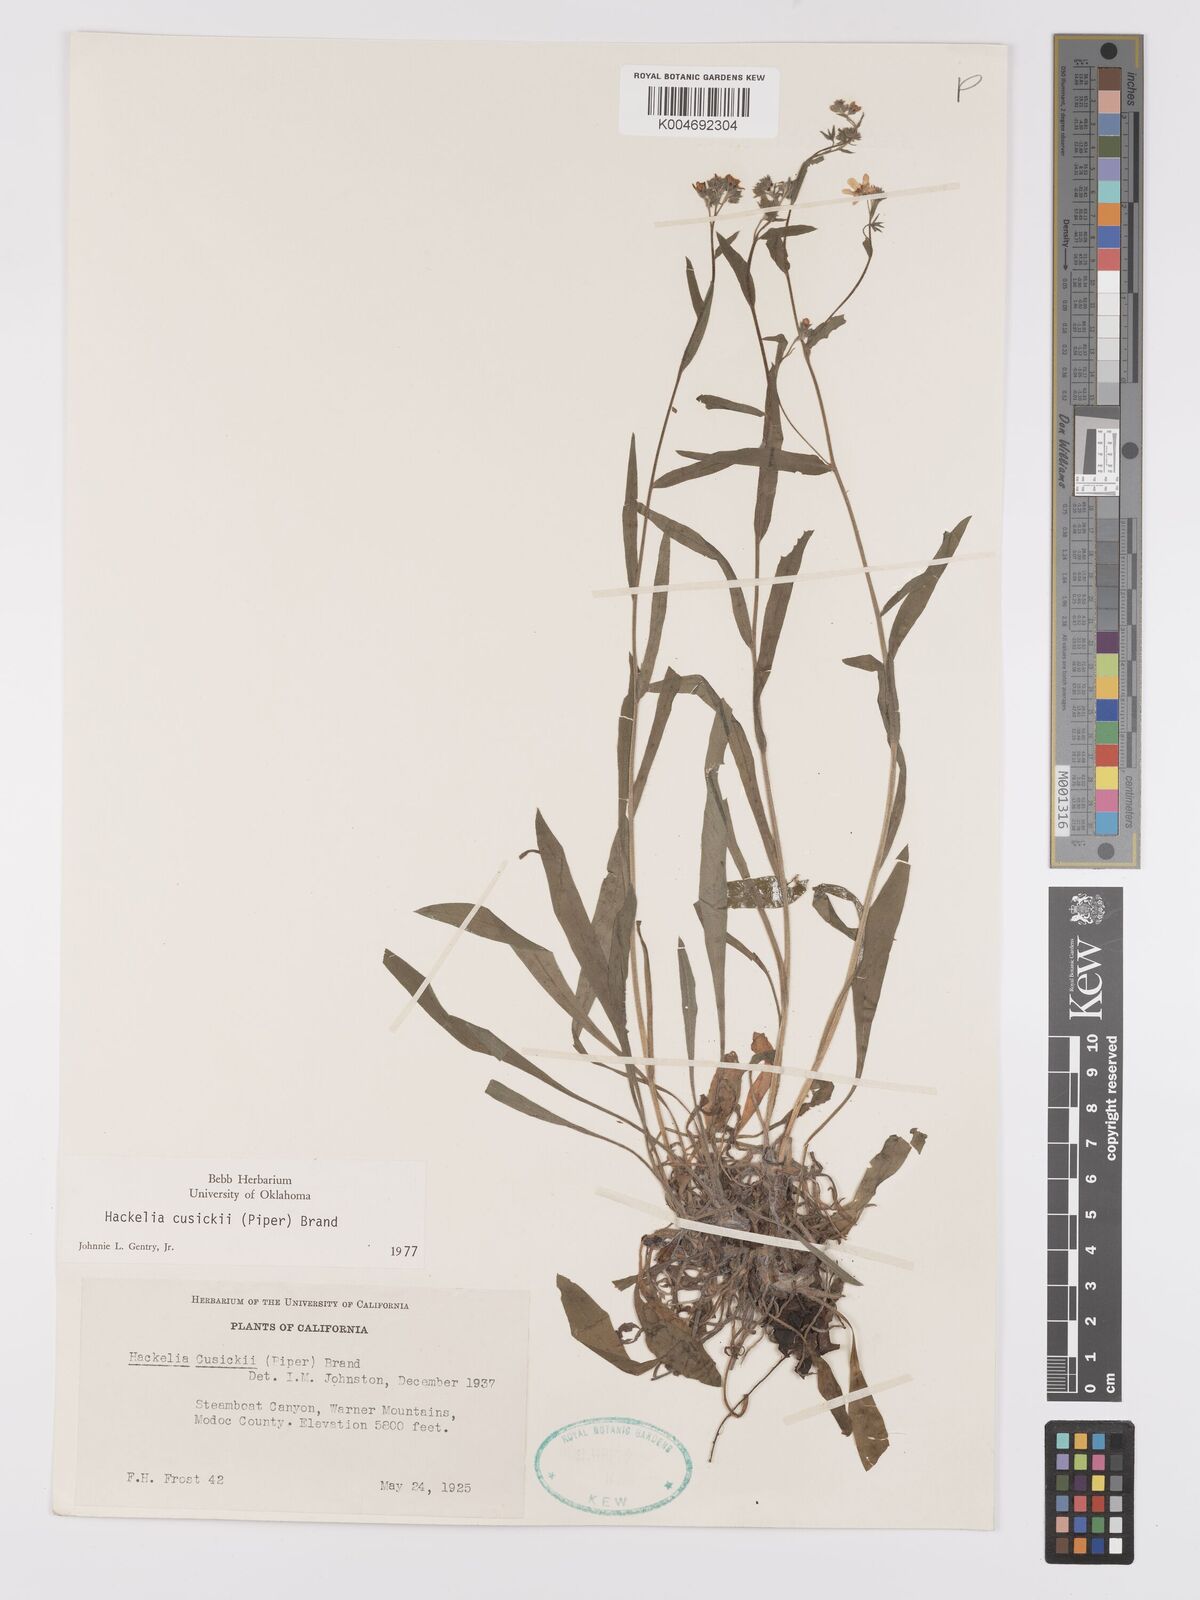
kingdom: Plantae
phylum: Tracheophyta
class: Magnoliopsida
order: Boraginales
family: Boraginaceae
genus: Hackelia
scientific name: Hackelia cusickii
